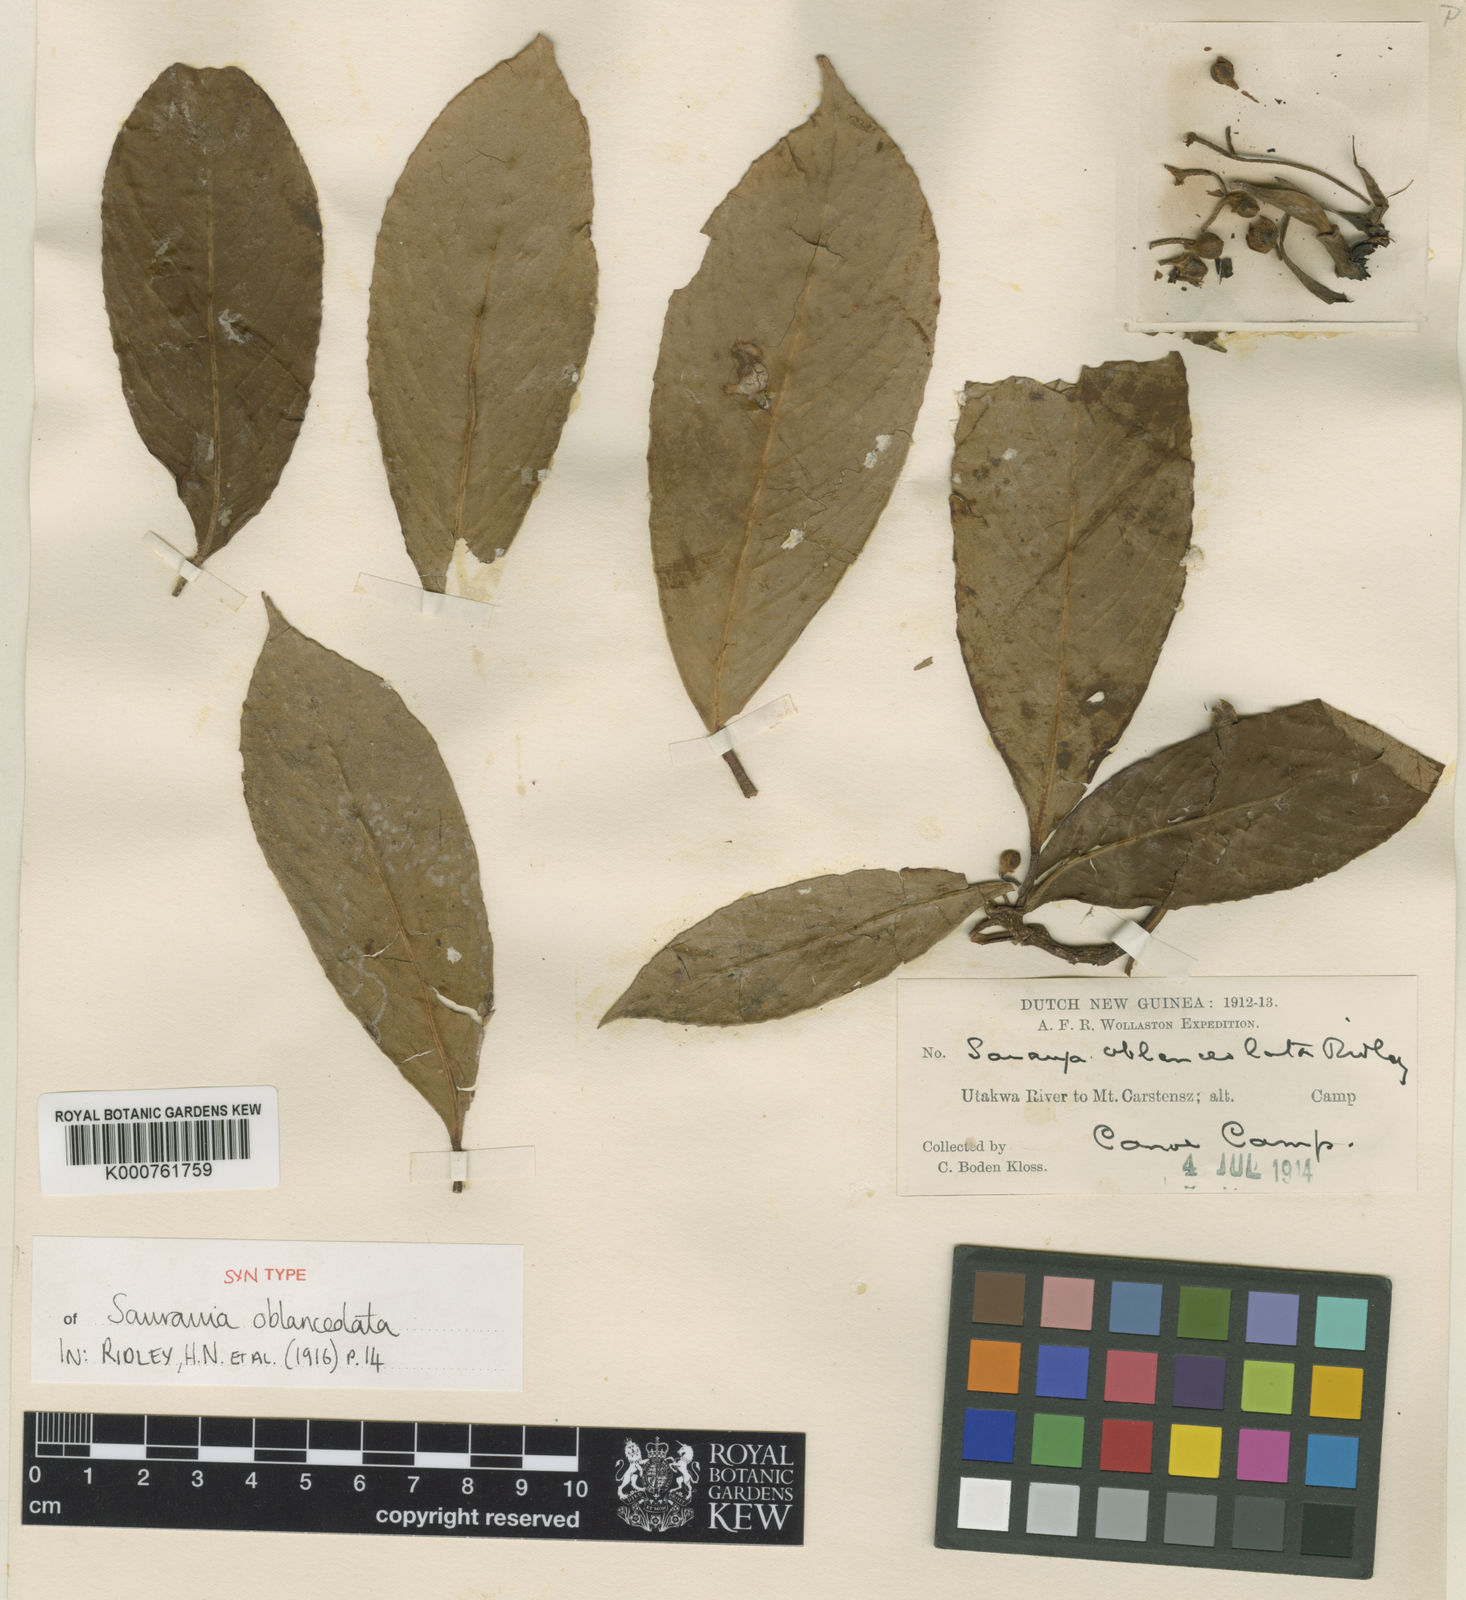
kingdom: Plantae
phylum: Tracheophyta
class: Magnoliopsida
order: Ericales
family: Actinidiaceae
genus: Saurauia
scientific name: Saurauia oblanceolata
